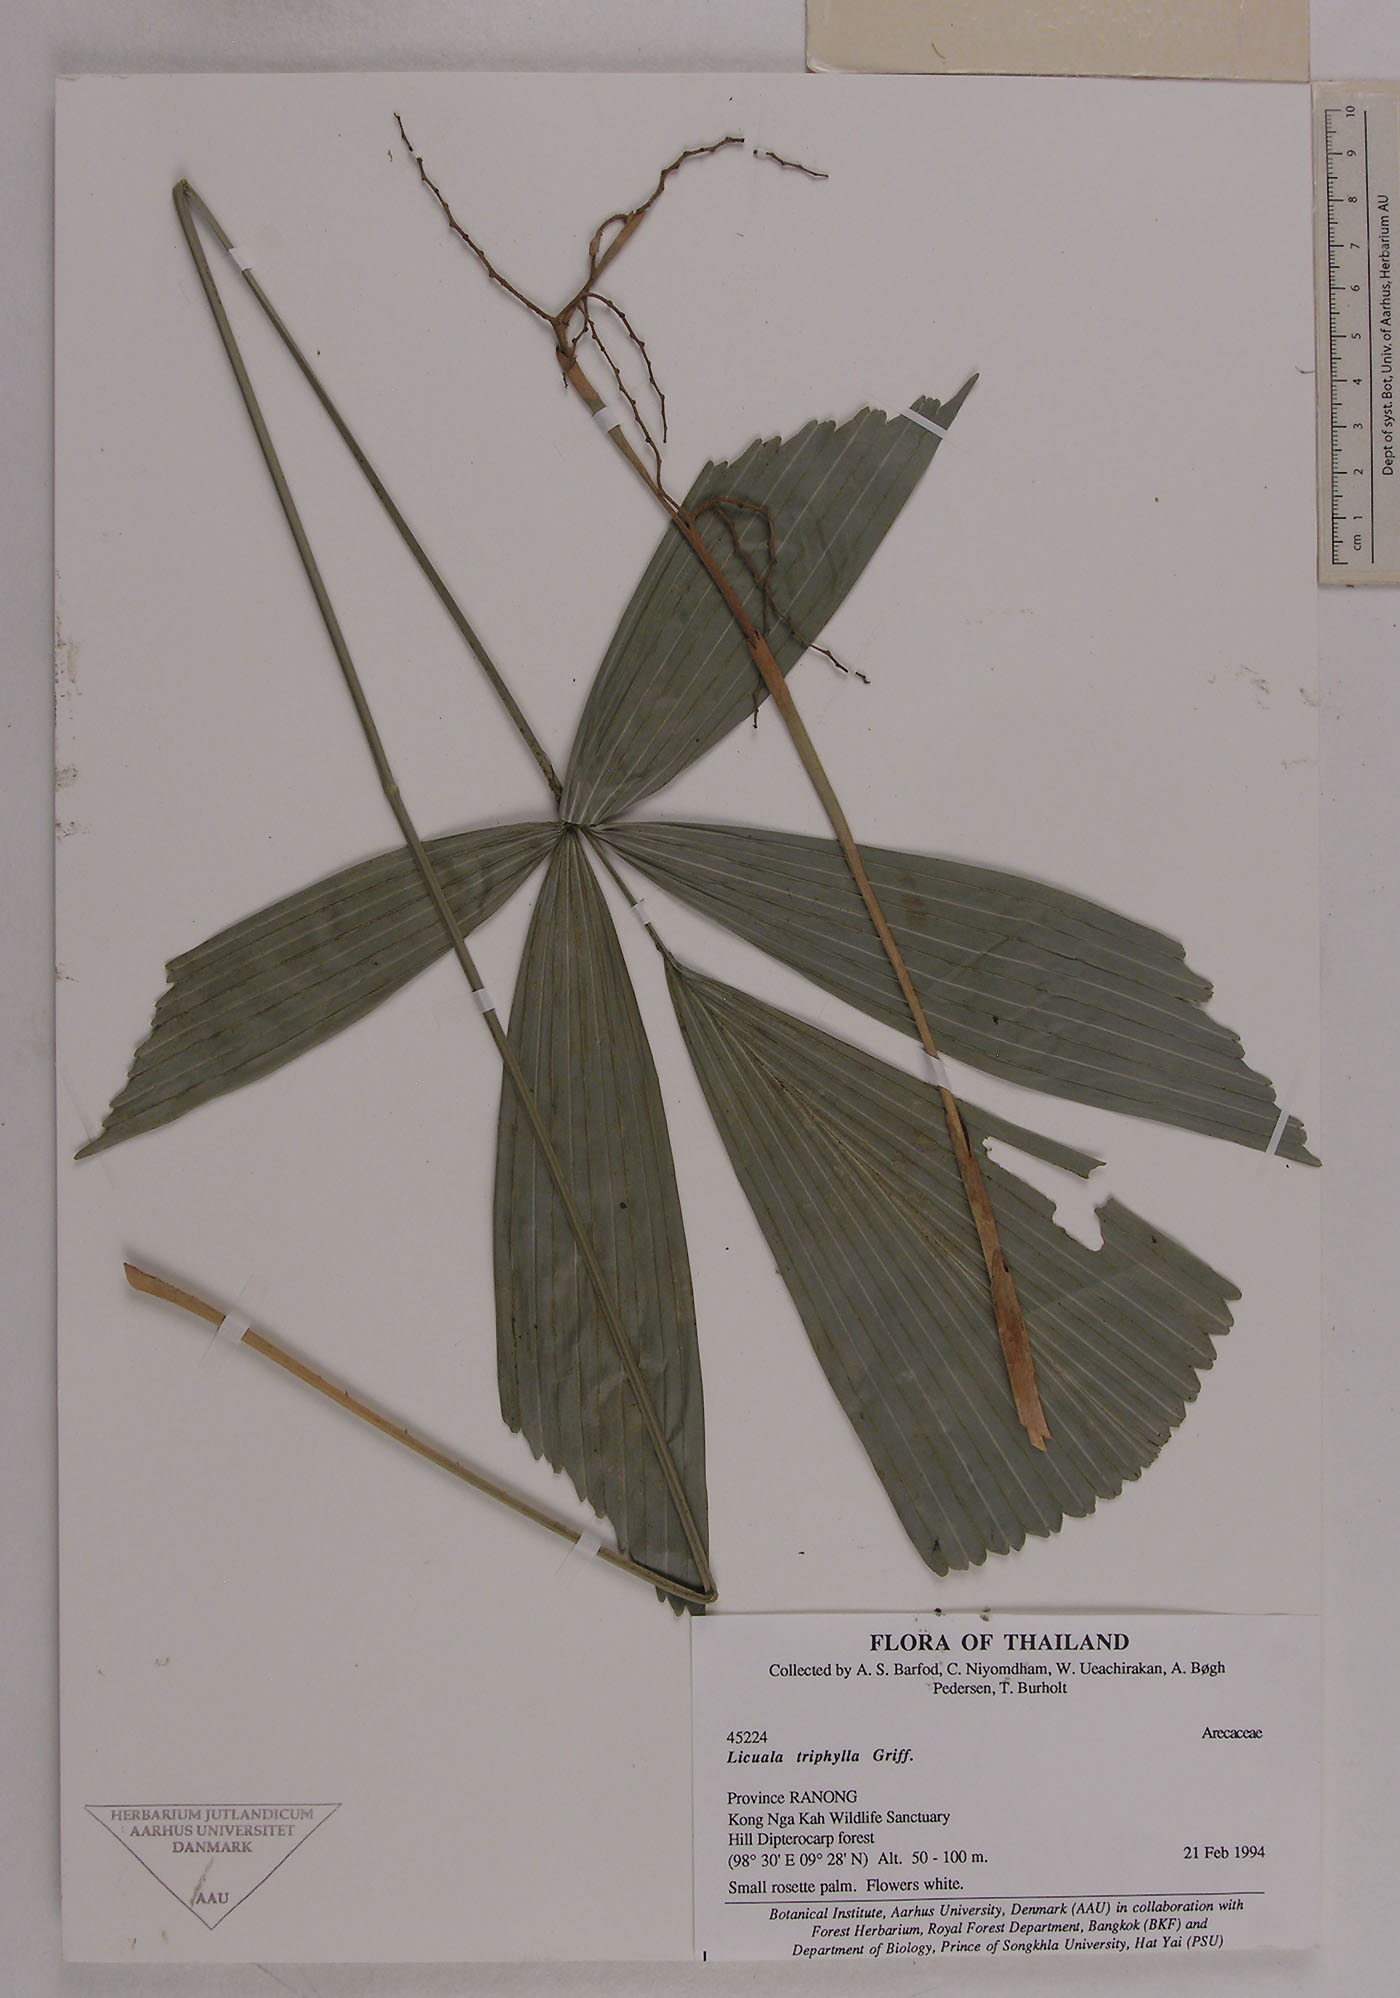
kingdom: Plantae
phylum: Tracheophyta
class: Liliopsida
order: Arecales
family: Arecaceae
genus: Licuala
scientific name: Licuala triphylla
